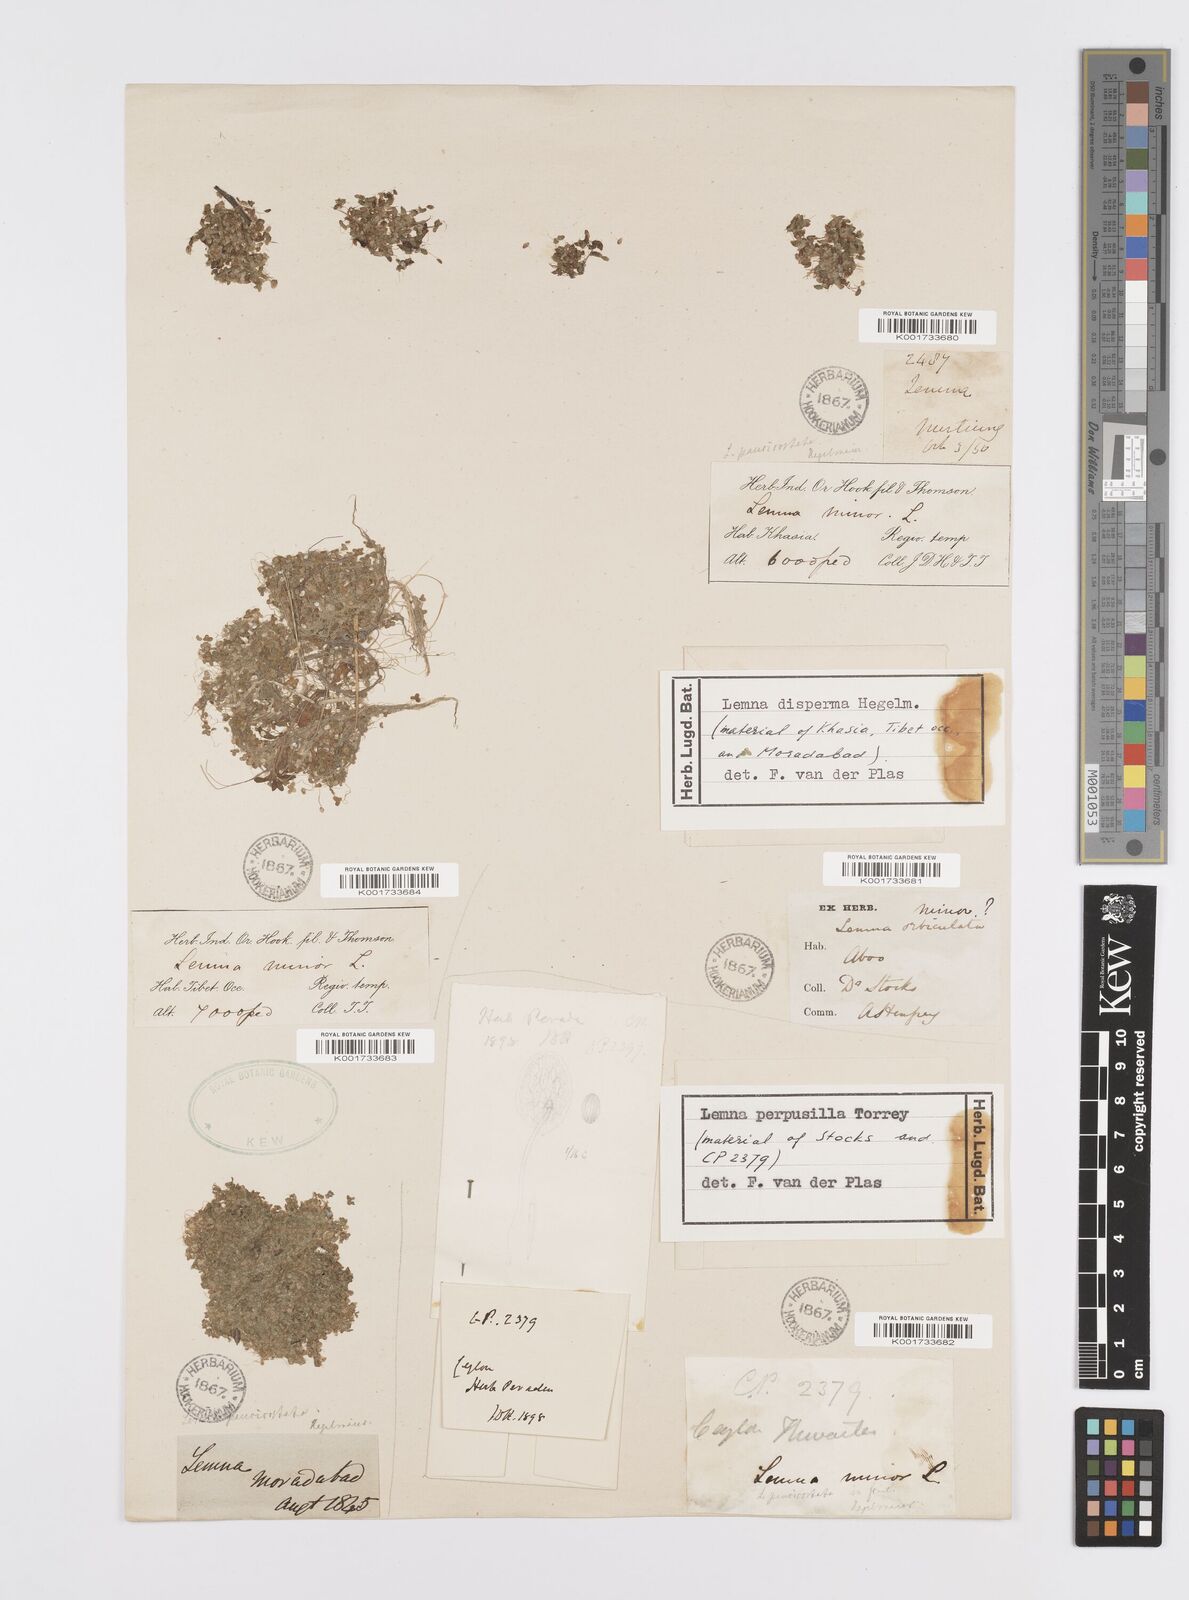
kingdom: Plantae
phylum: Tracheophyta
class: Liliopsida
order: Alismatales
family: Araceae
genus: Lemna
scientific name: Lemna perpusilla
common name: Duckweed
